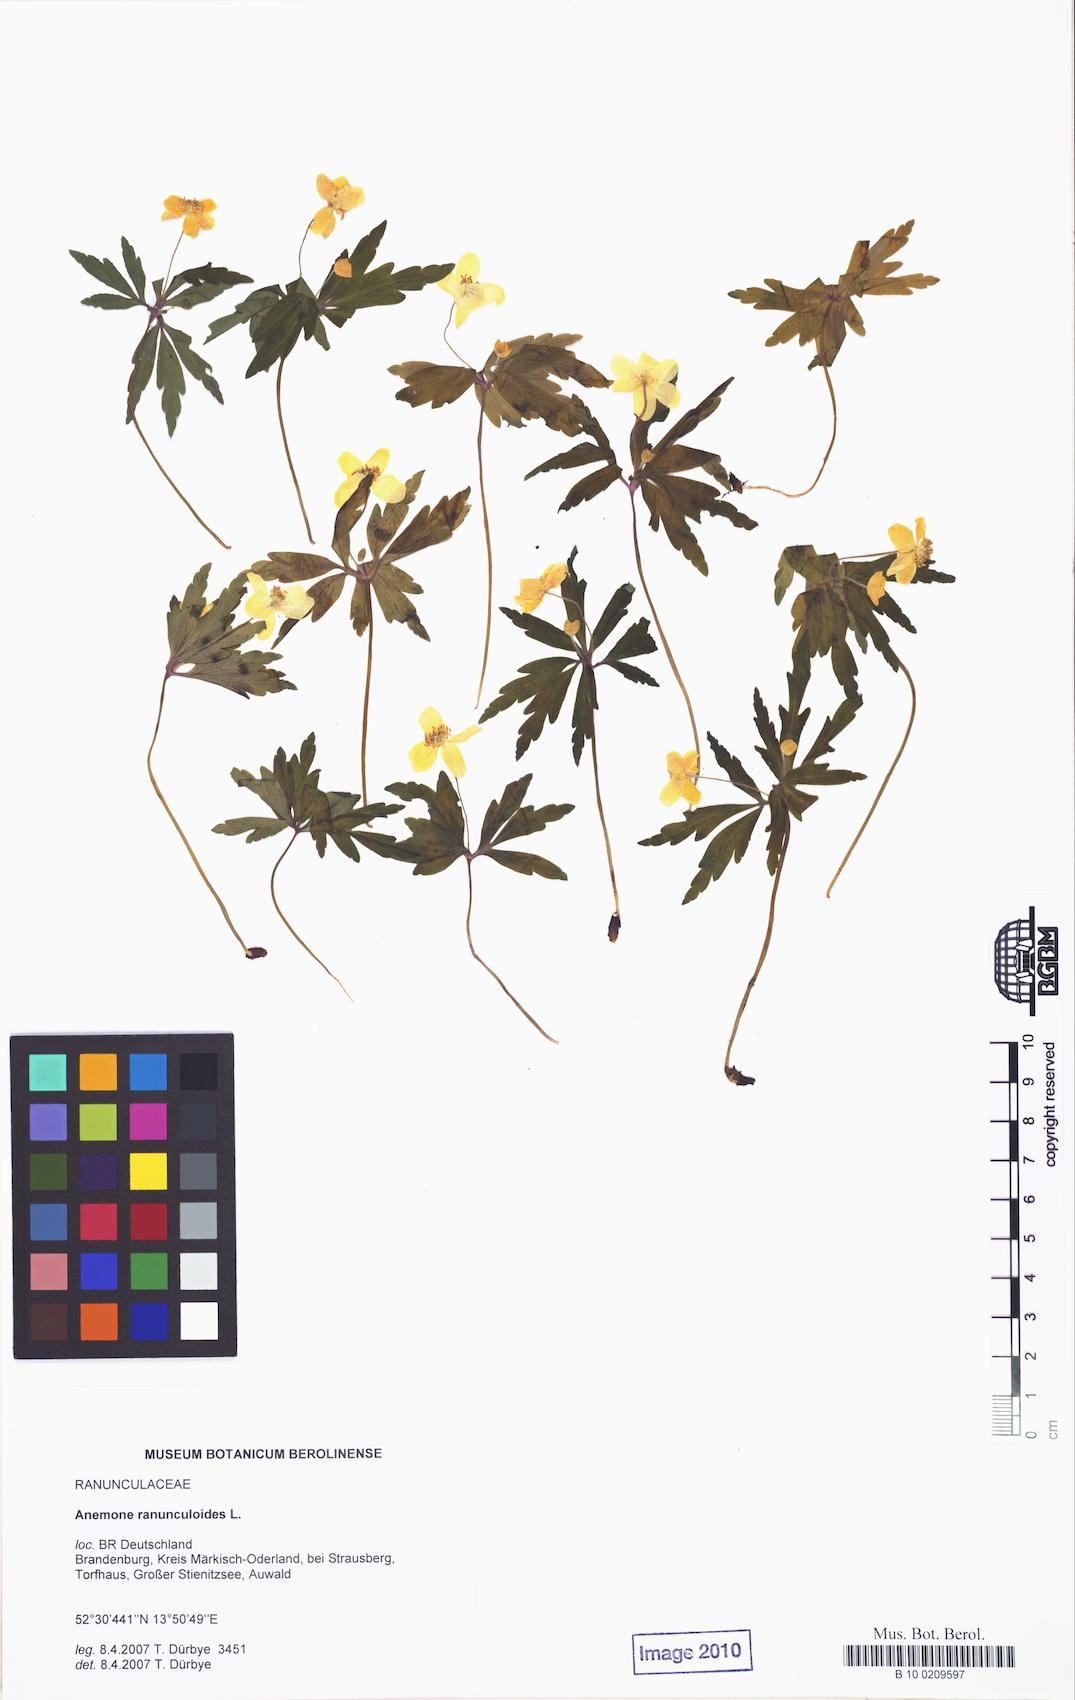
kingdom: Plantae
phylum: Tracheophyta
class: Magnoliopsida
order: Ranunculales
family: Ranunculaceae
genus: Anemone
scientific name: Anemone ranunculoides
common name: Yellow anemone
